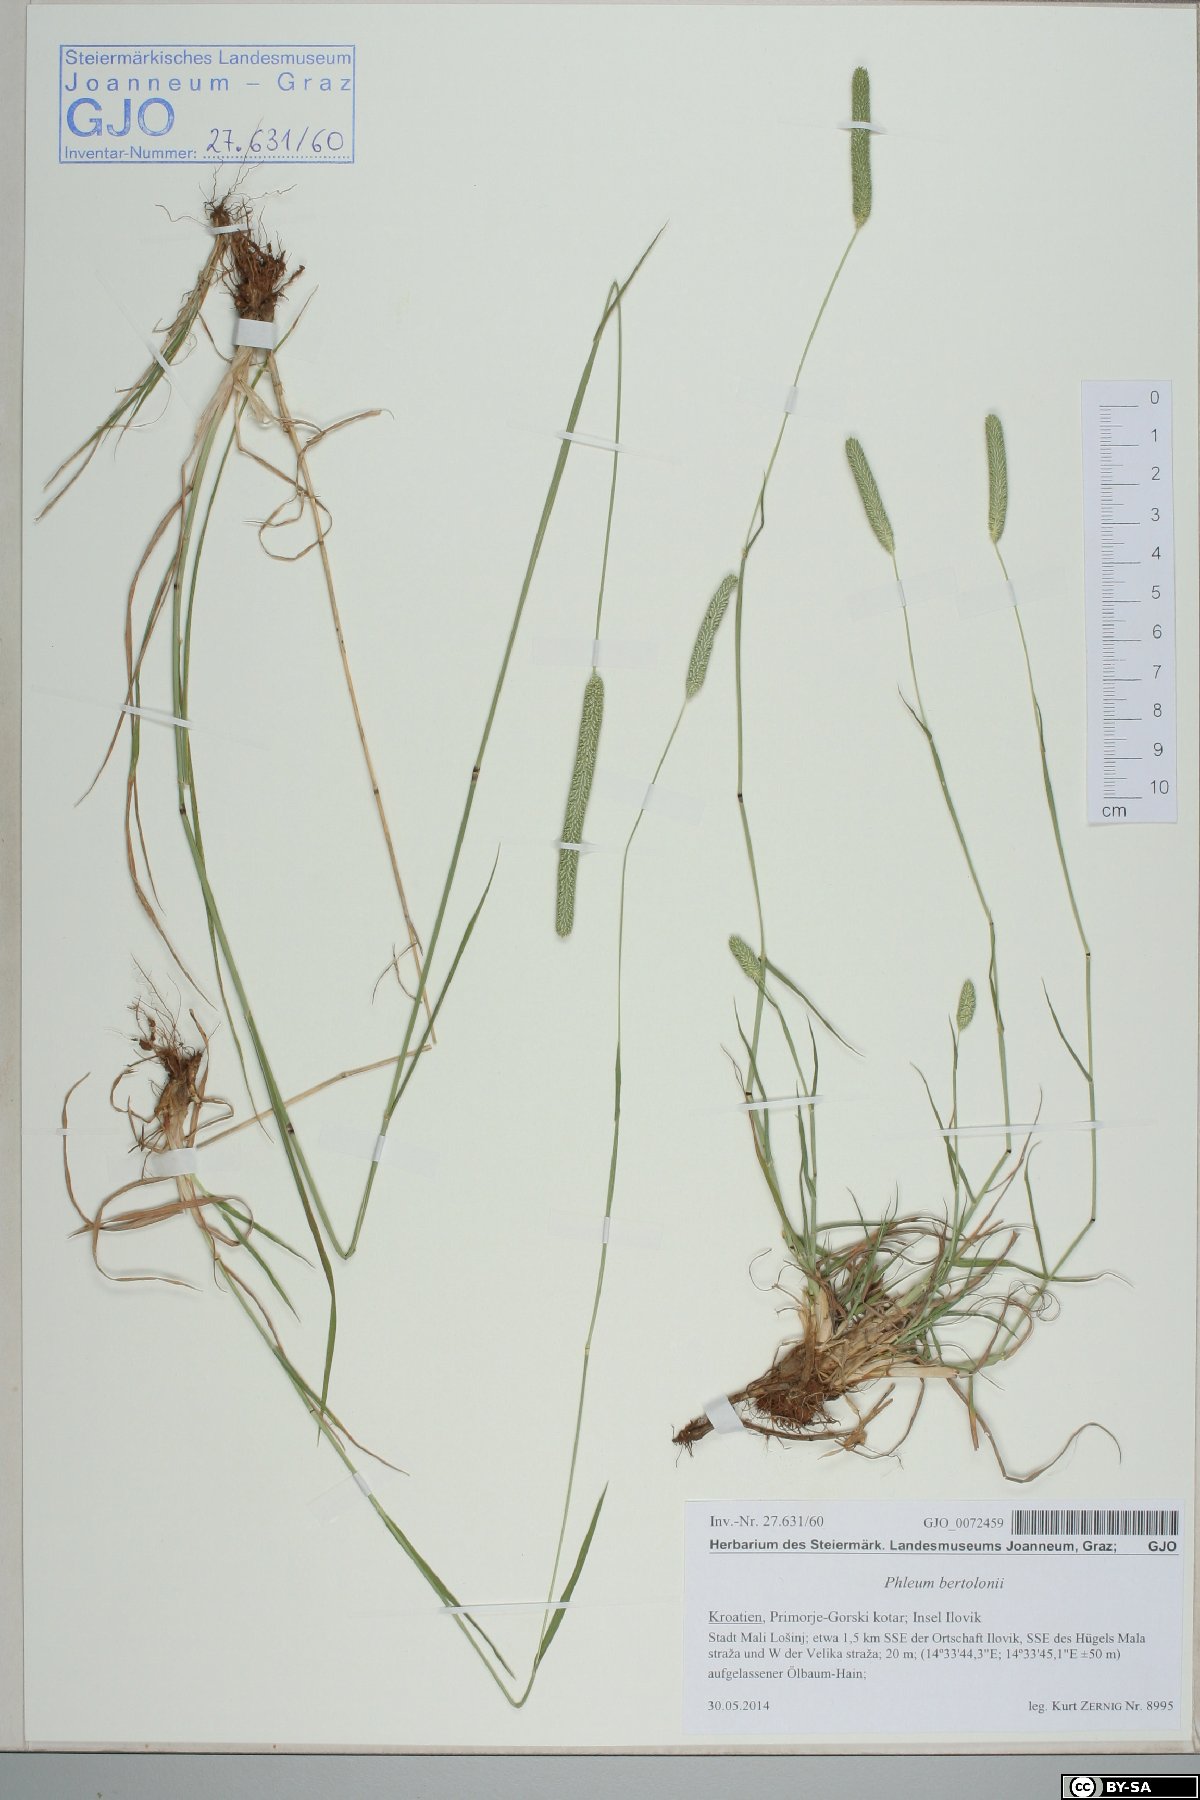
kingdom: Plantae
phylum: Tracheophyta
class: Liliopsida
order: Poales
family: Poaceae
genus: Phleum
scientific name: Phleum bertolonii
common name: Smaller cat's-tail
